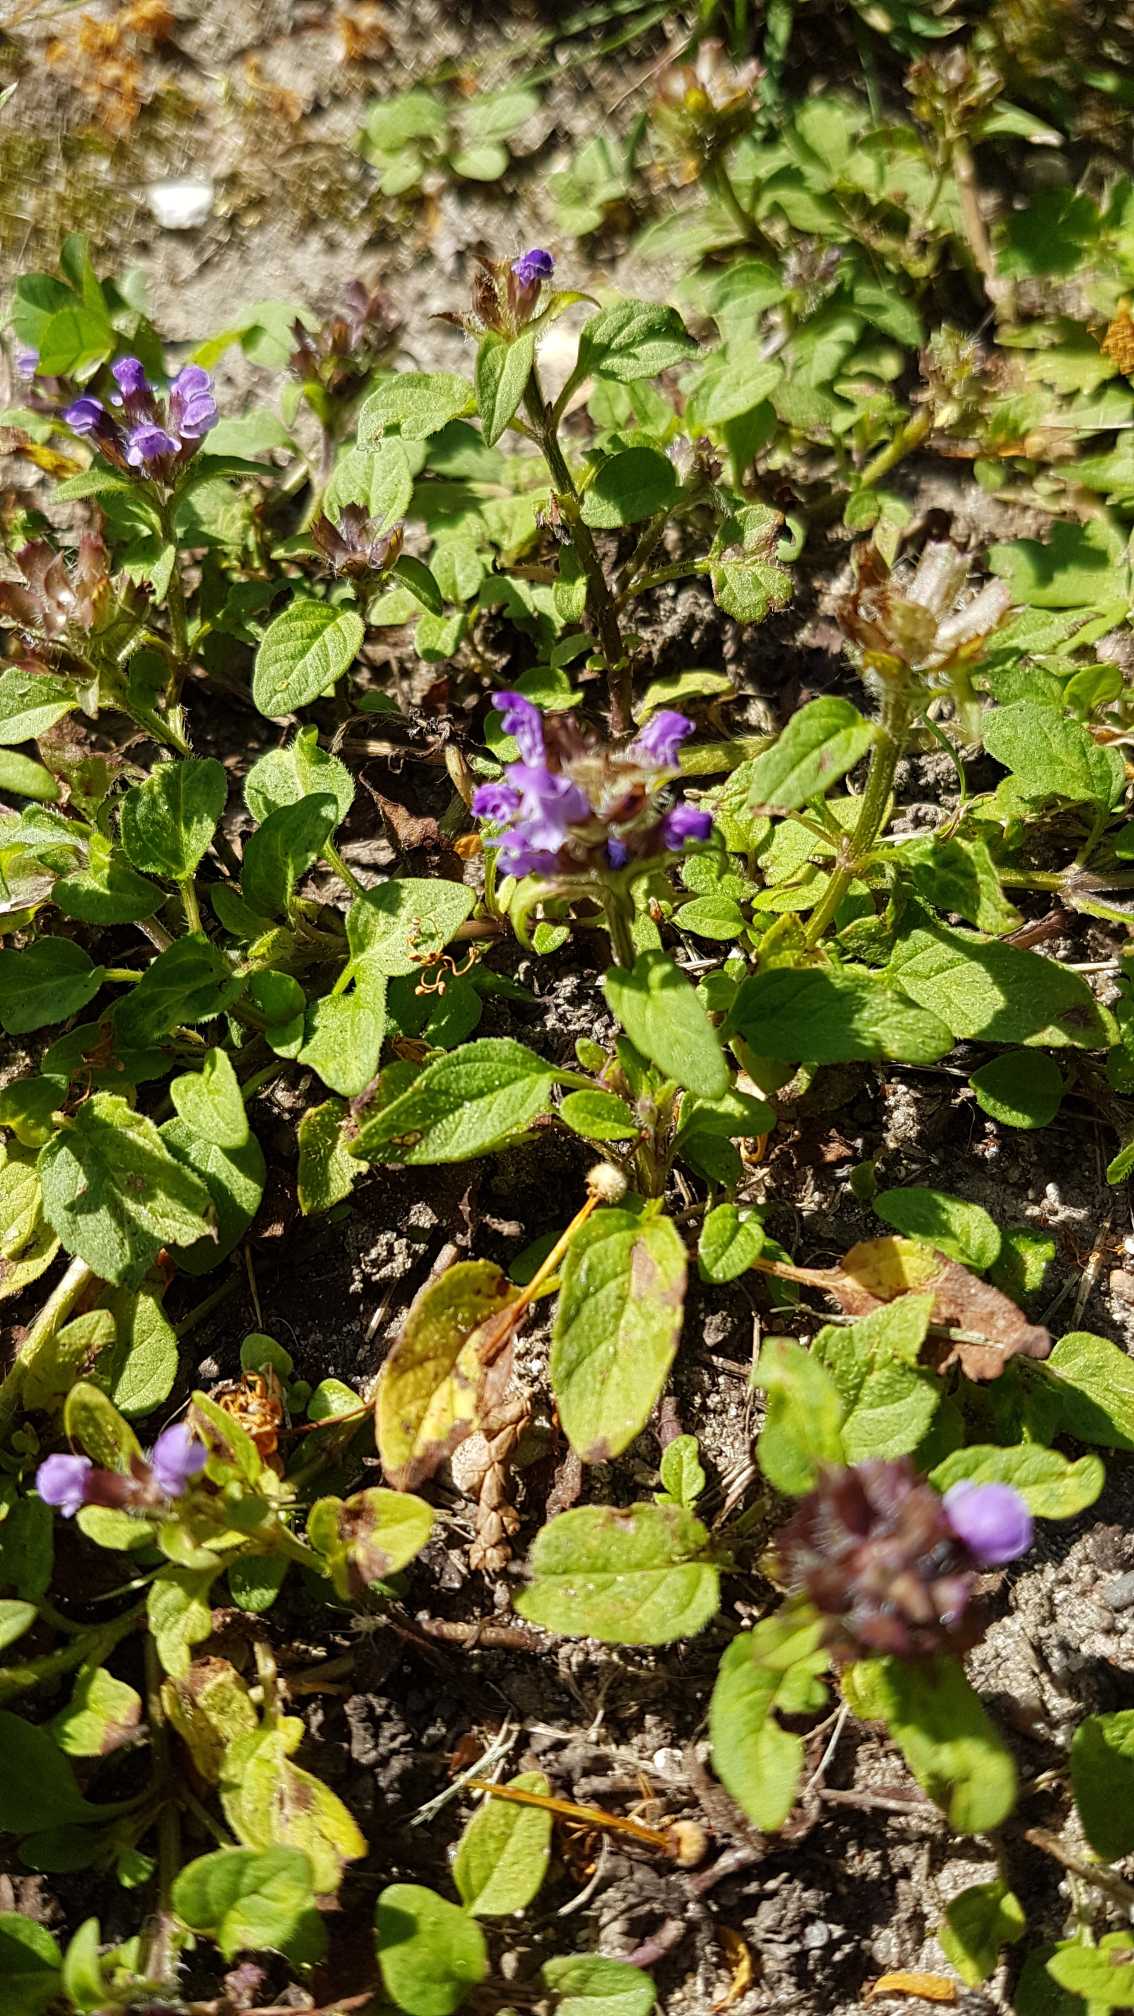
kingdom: Plantae
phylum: Tracheophyta
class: Magnoliopsida
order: Lamiales
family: Lamiaceae
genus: Prunella
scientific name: Prunella vulgaris
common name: Almindelig brunelle
